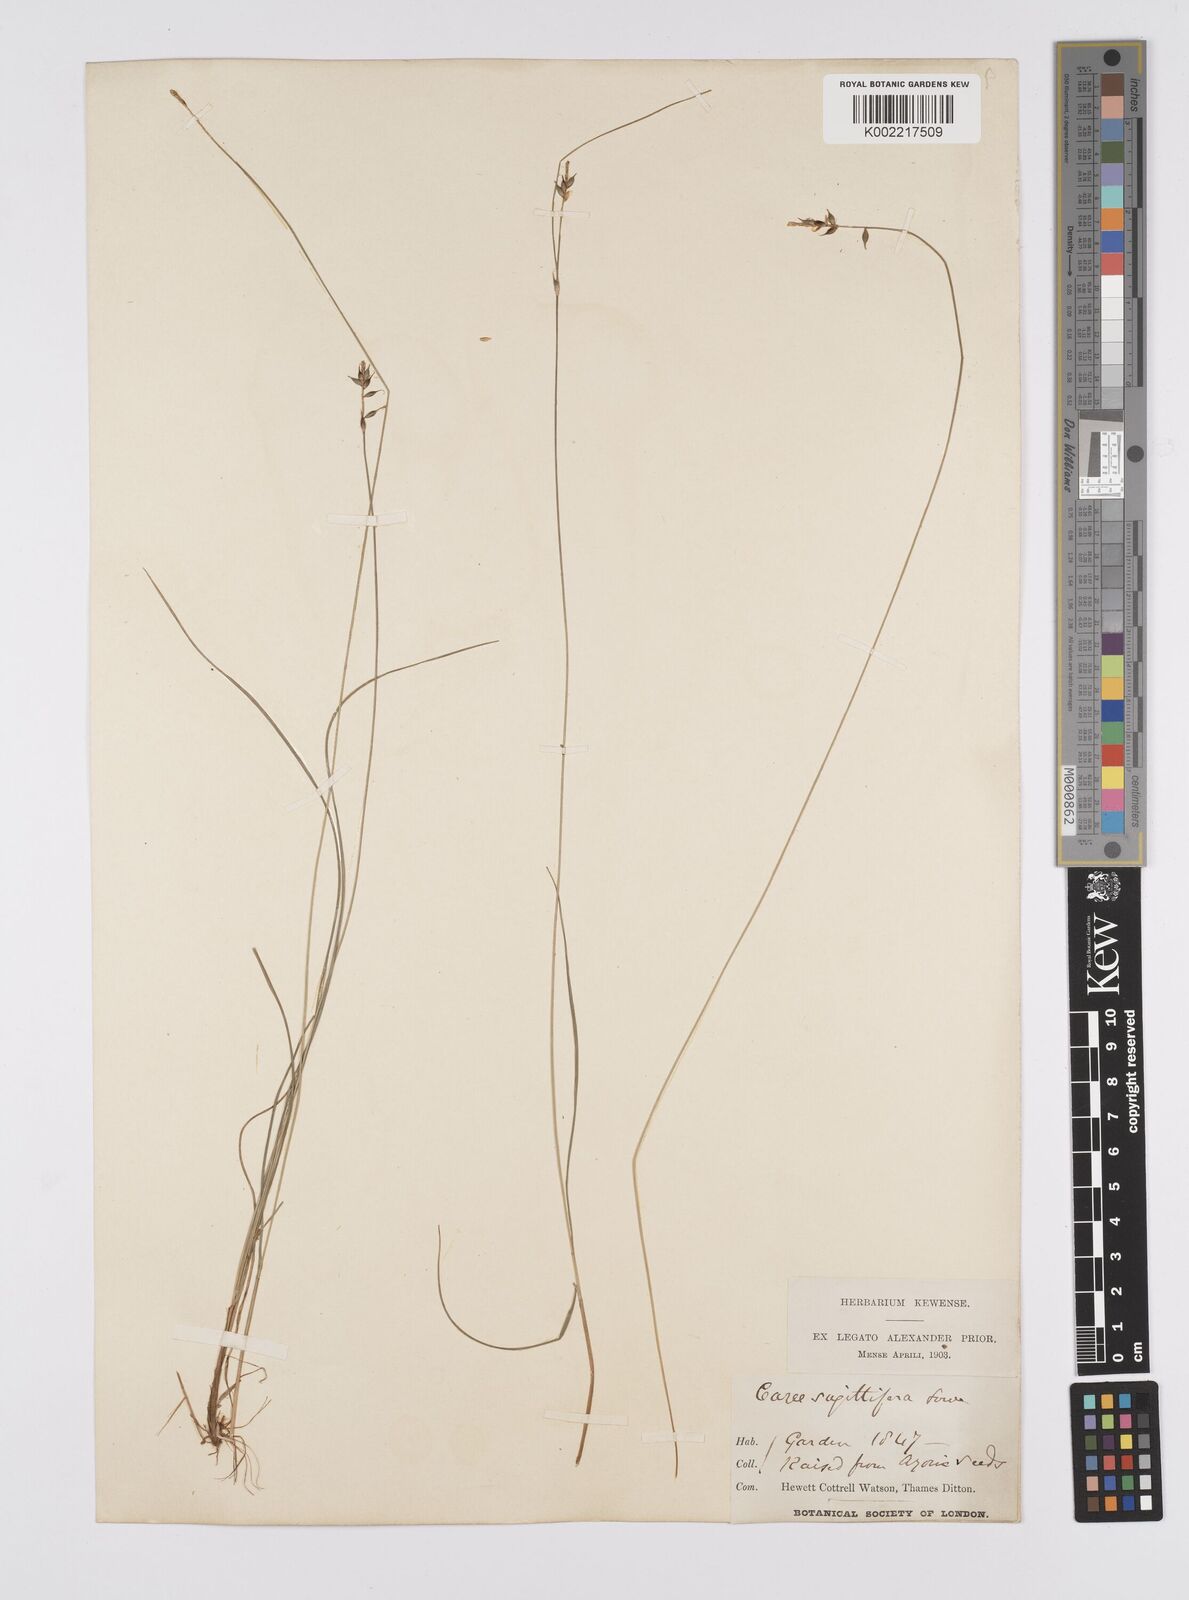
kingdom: Plantae
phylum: Tracheophyta
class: Liliopsida
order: Poales
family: Cyperaceae
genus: Carex
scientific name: Carex peregrina
